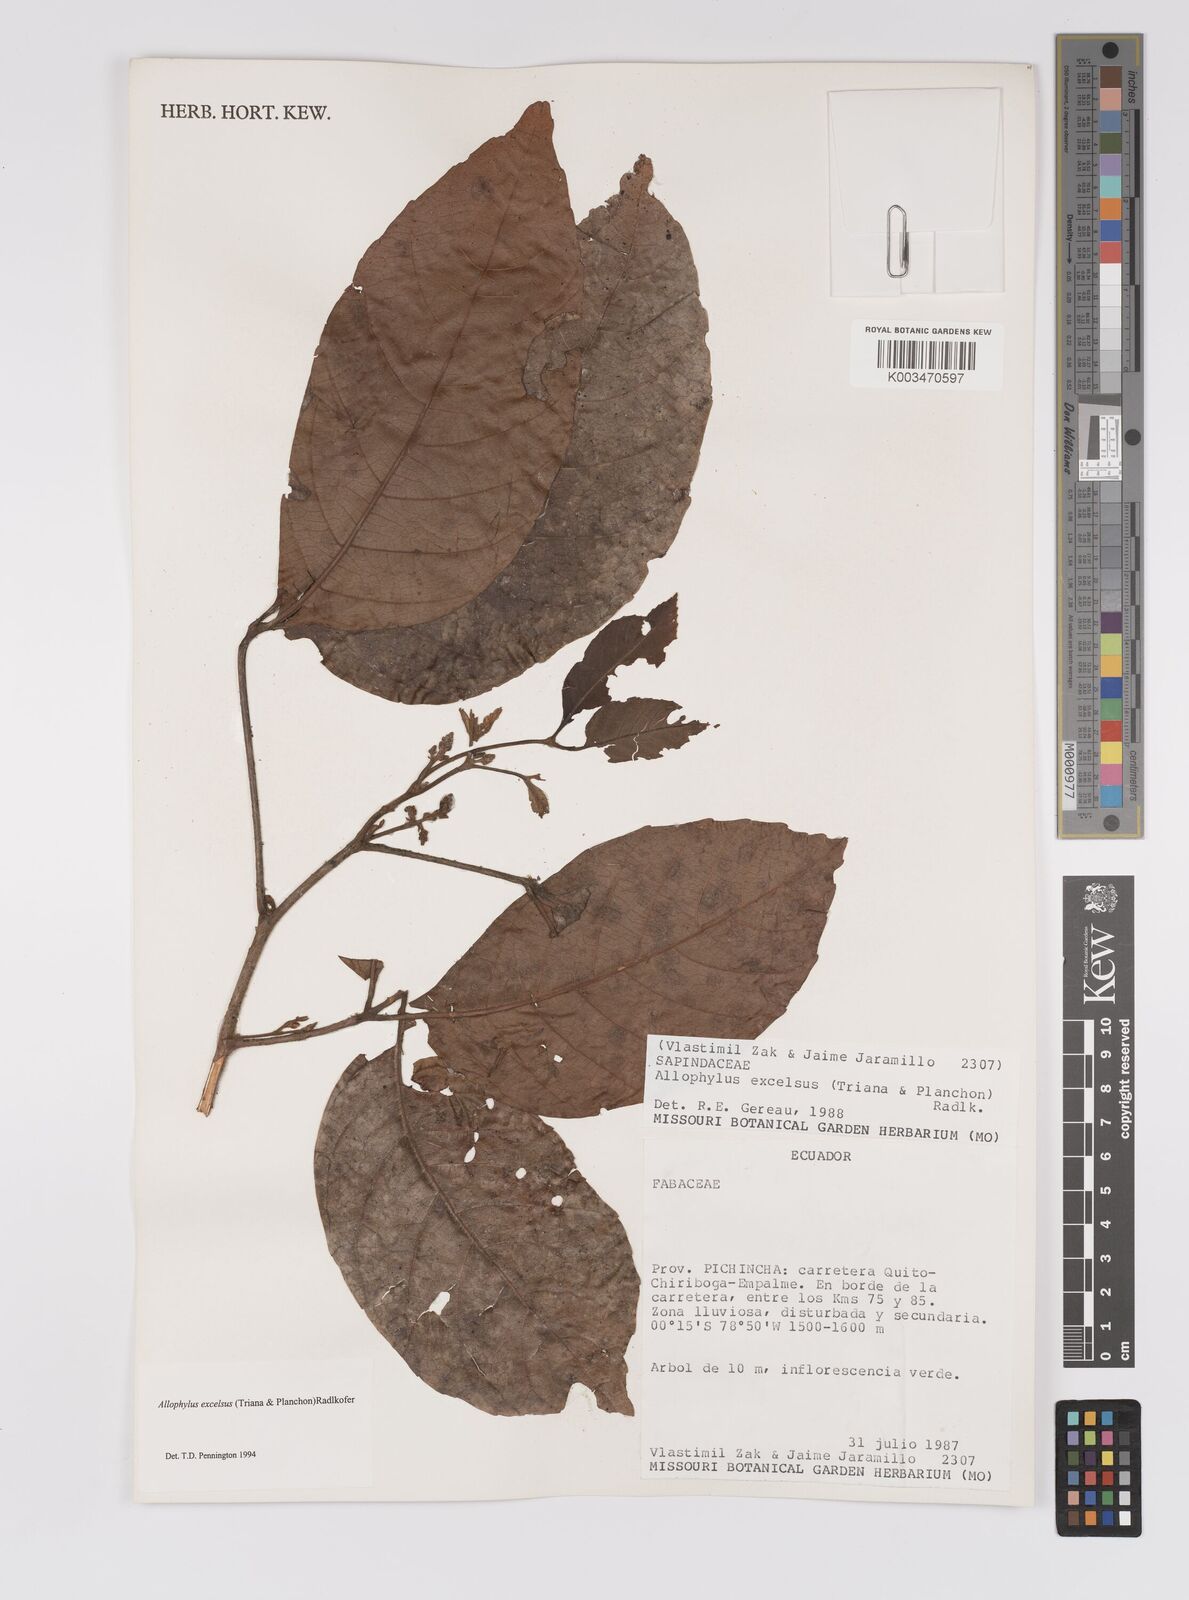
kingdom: Plantae
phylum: Tracheophyta
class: Magnoliopsida
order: Sapindales
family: Sapindaceae
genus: Allophylus
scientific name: Allophylus excelsus
